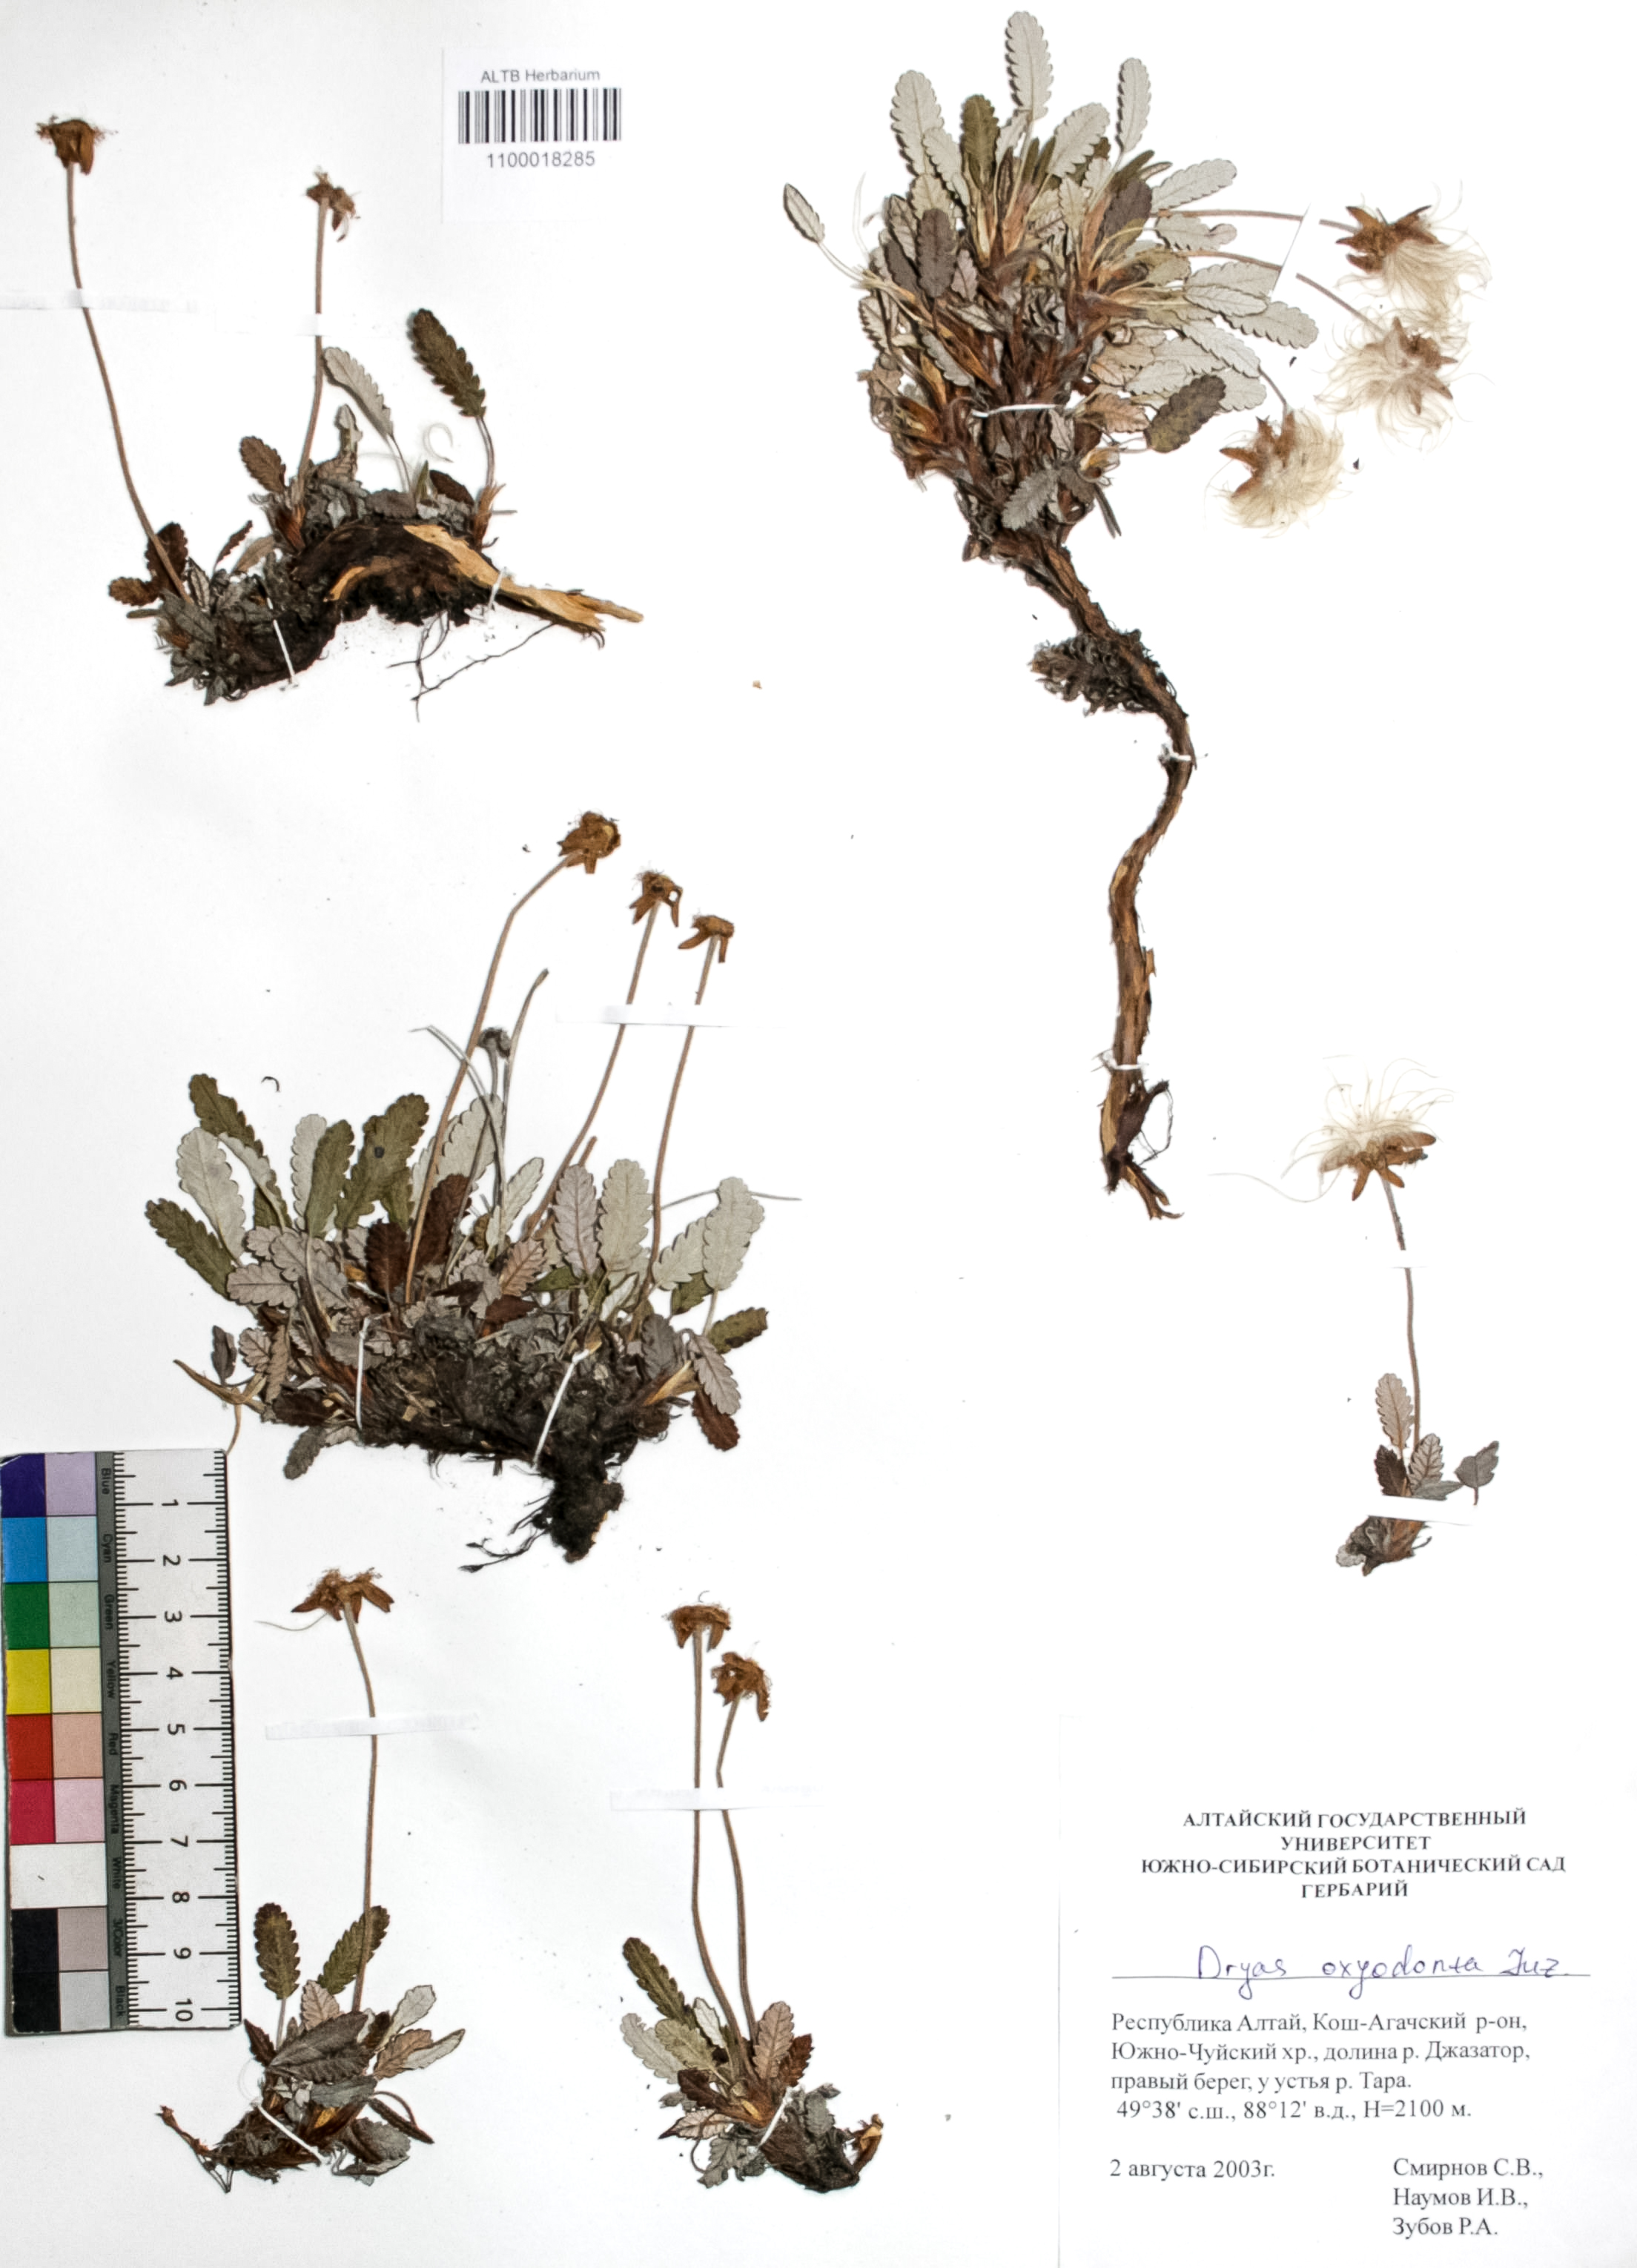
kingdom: Plantae
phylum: Tracheophyta
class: Magnoliopsida
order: Rosales
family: Rosaceae
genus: Dryas
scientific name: Dryas octopetala
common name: Eight-petal mountain-avens
